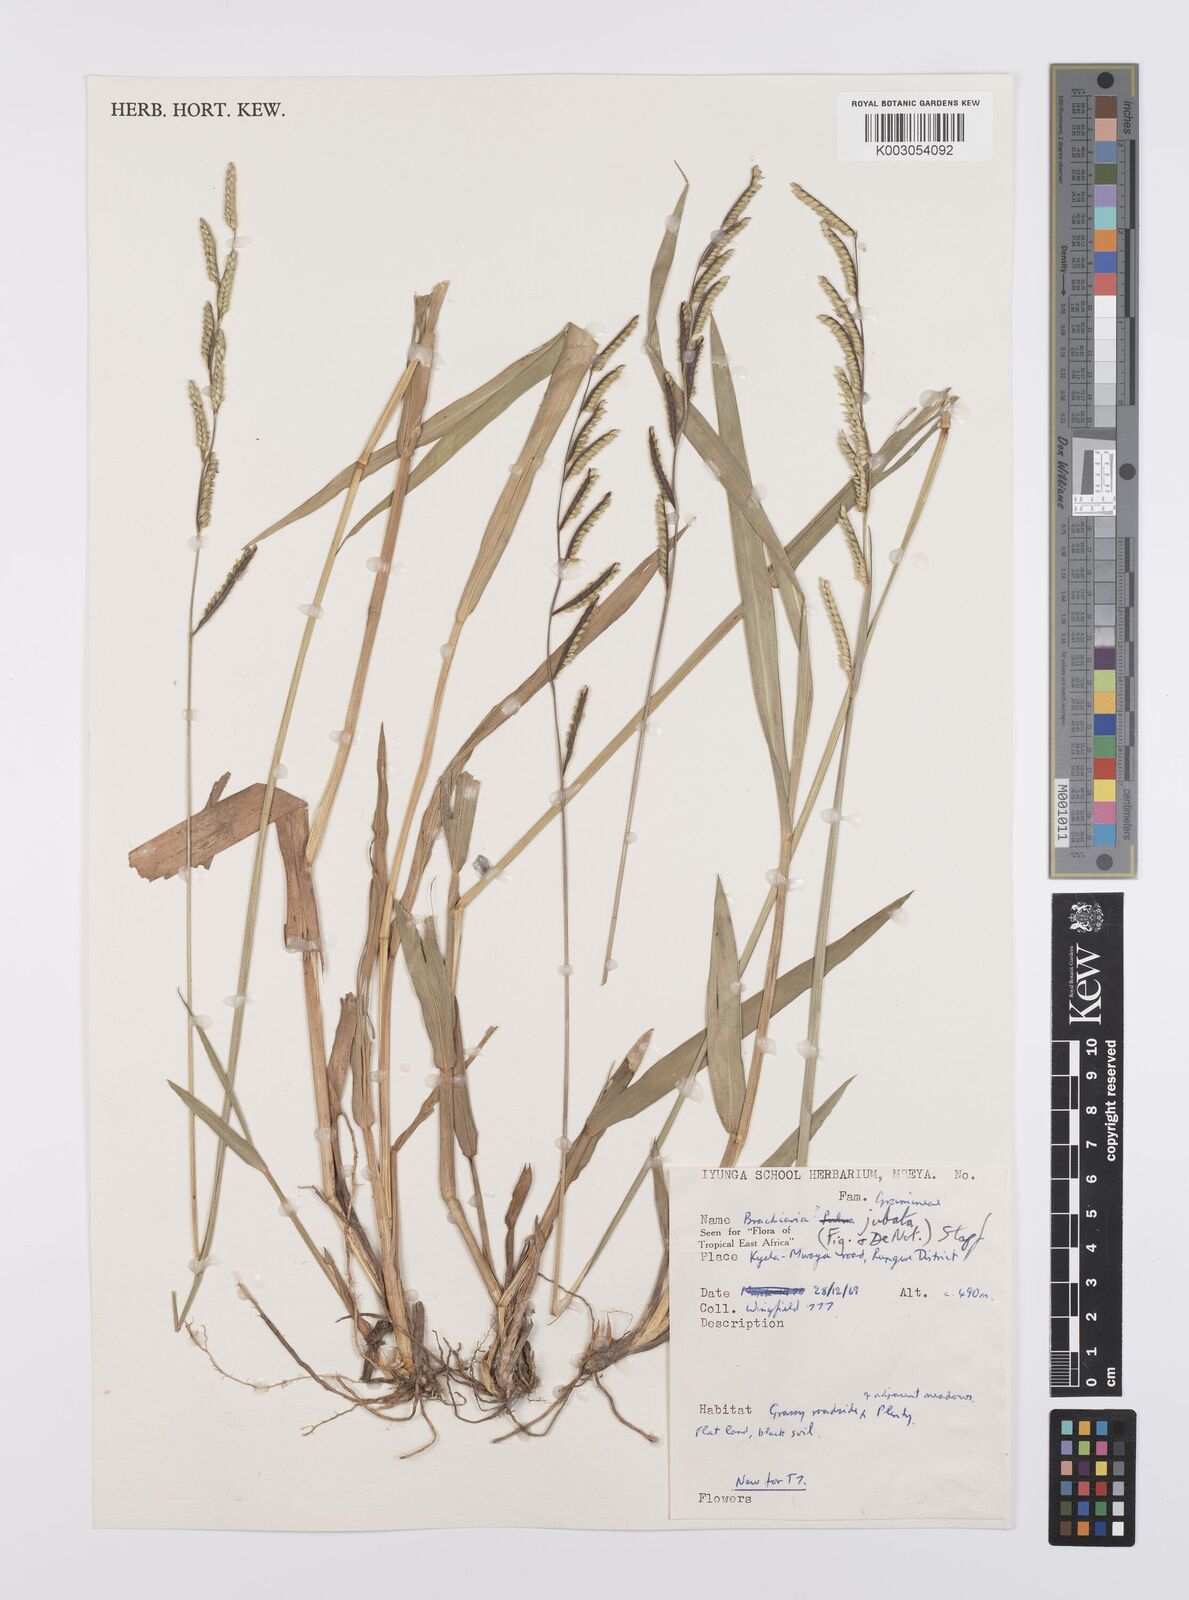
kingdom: Plantae
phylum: Tracheophyta
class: Liliopsida
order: Poales
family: Poaceae
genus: Urochloa
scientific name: Urochloa jubata
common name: Buffalograss
